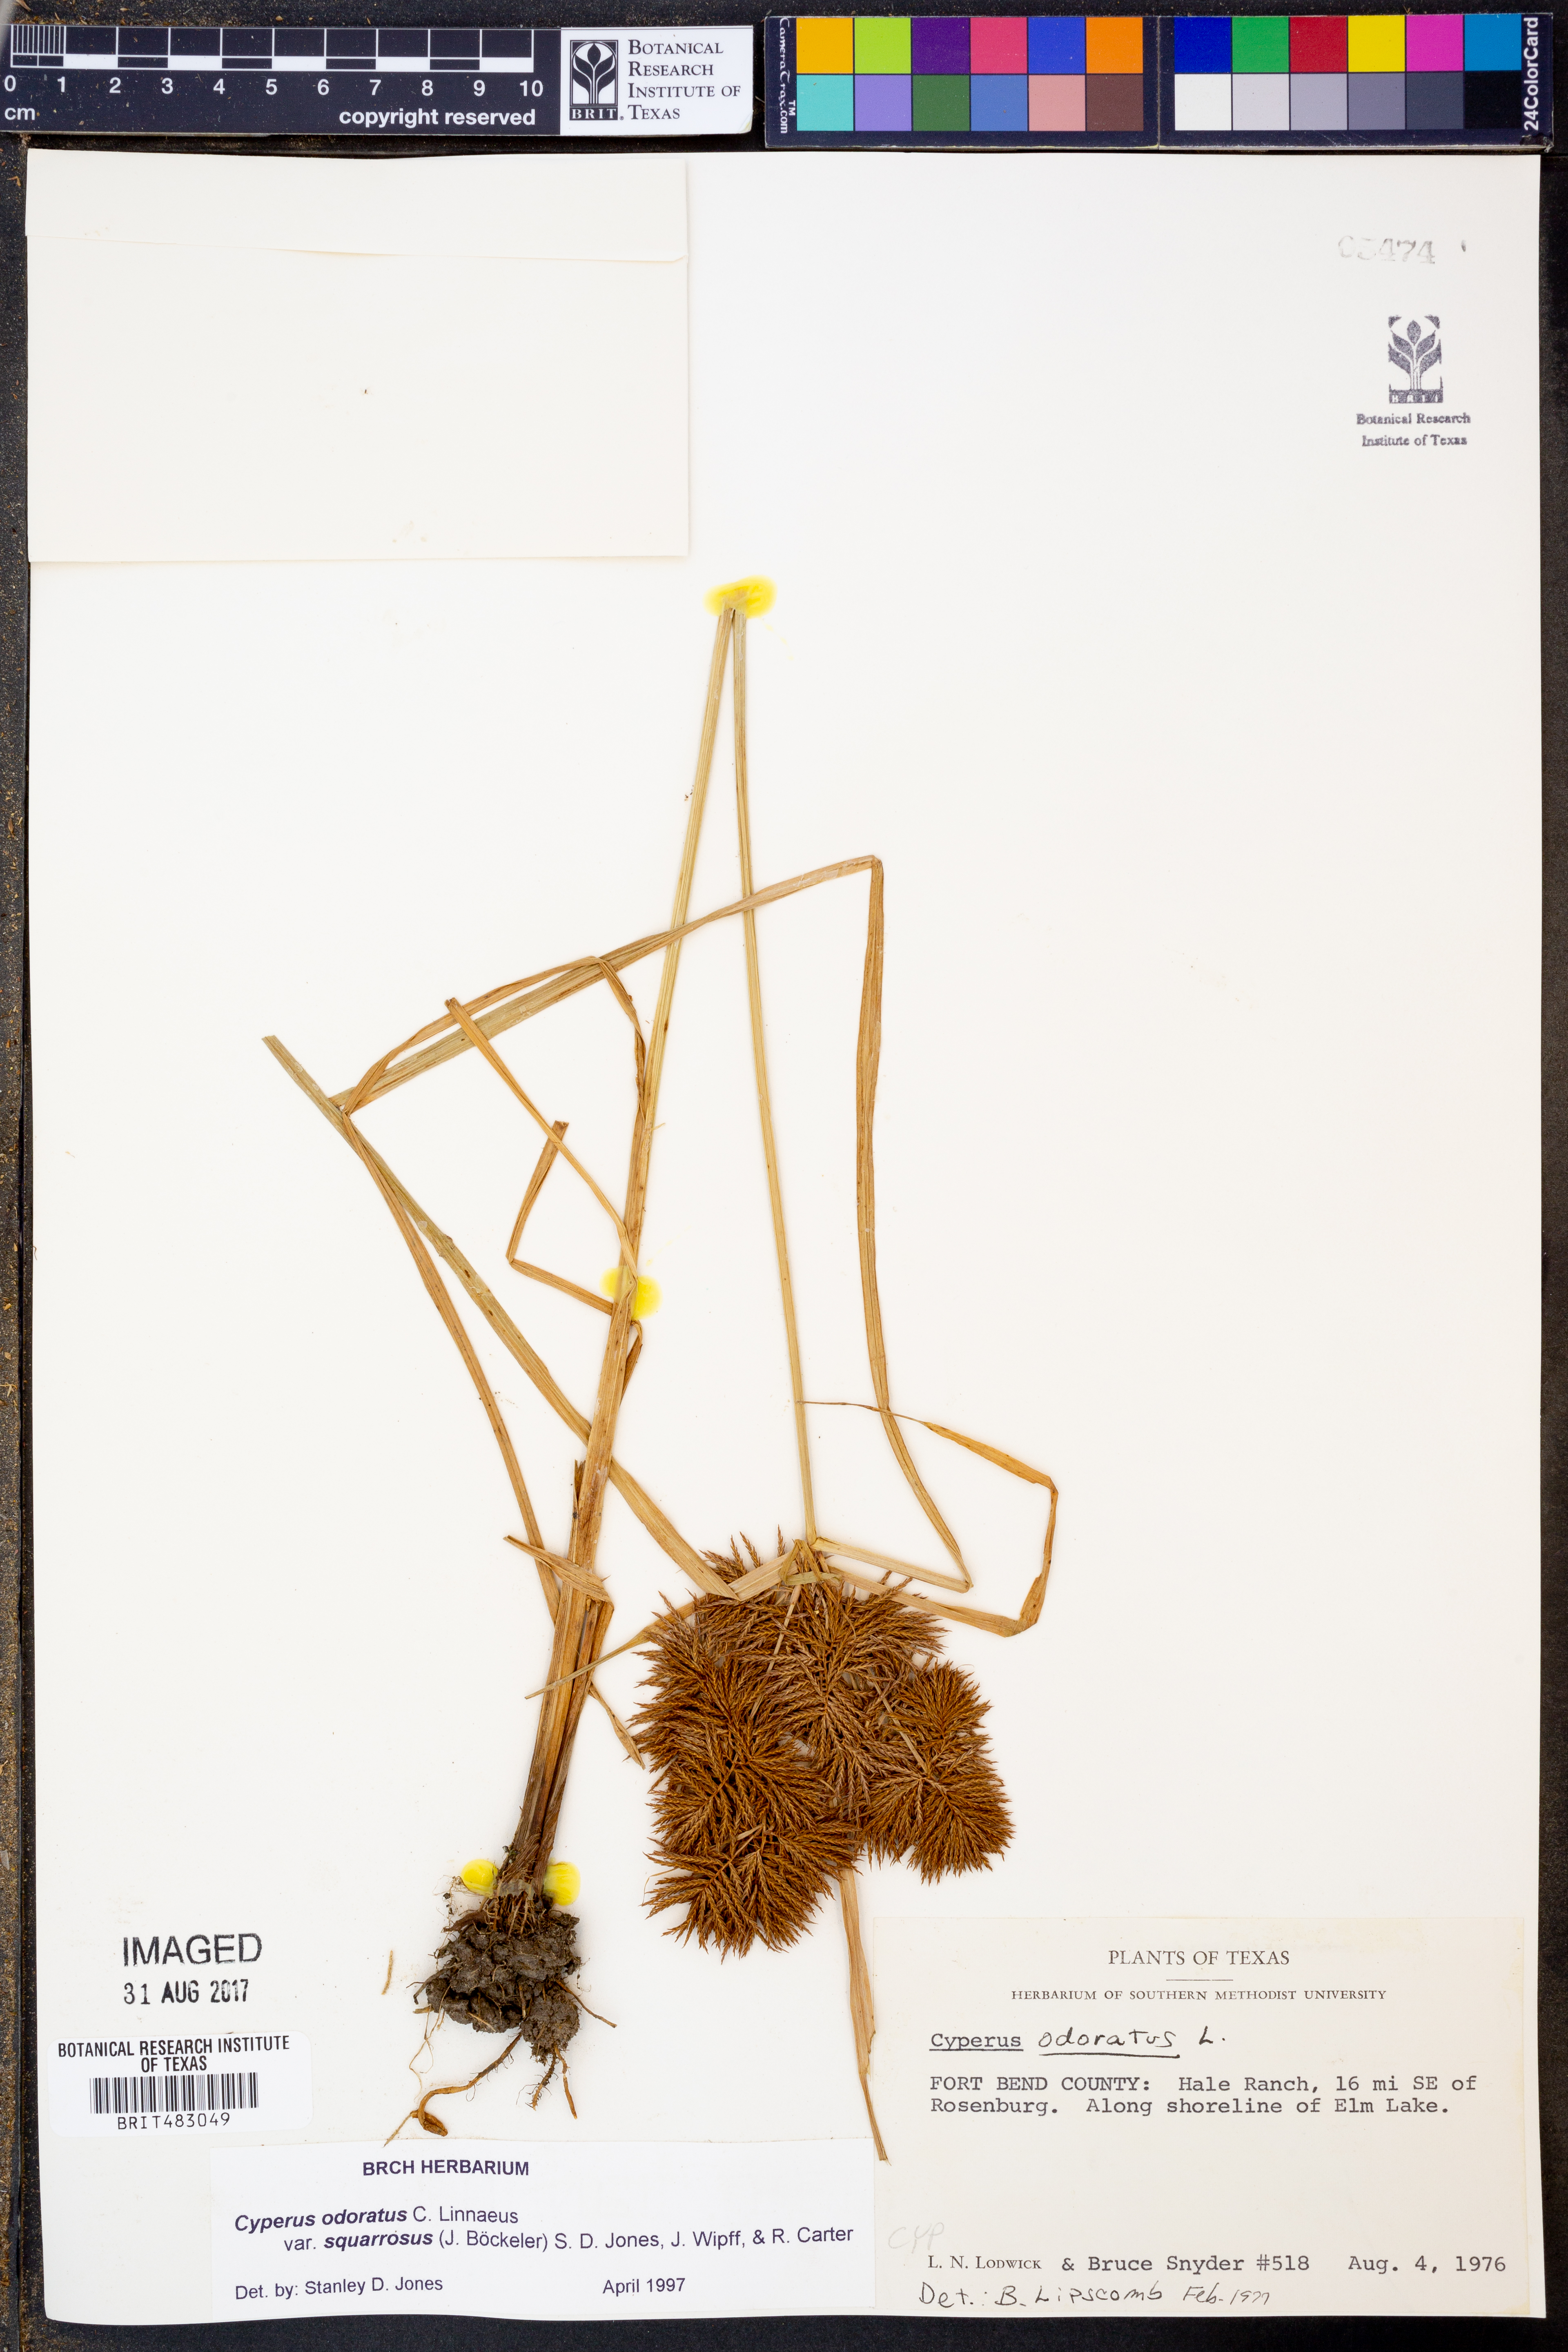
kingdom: Plantae
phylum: Tracheophyta
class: Liliopsida
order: Poales
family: Cyperaceae
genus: Cyperus
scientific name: Cyperus odoratus
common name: Fragrant flatsedge
